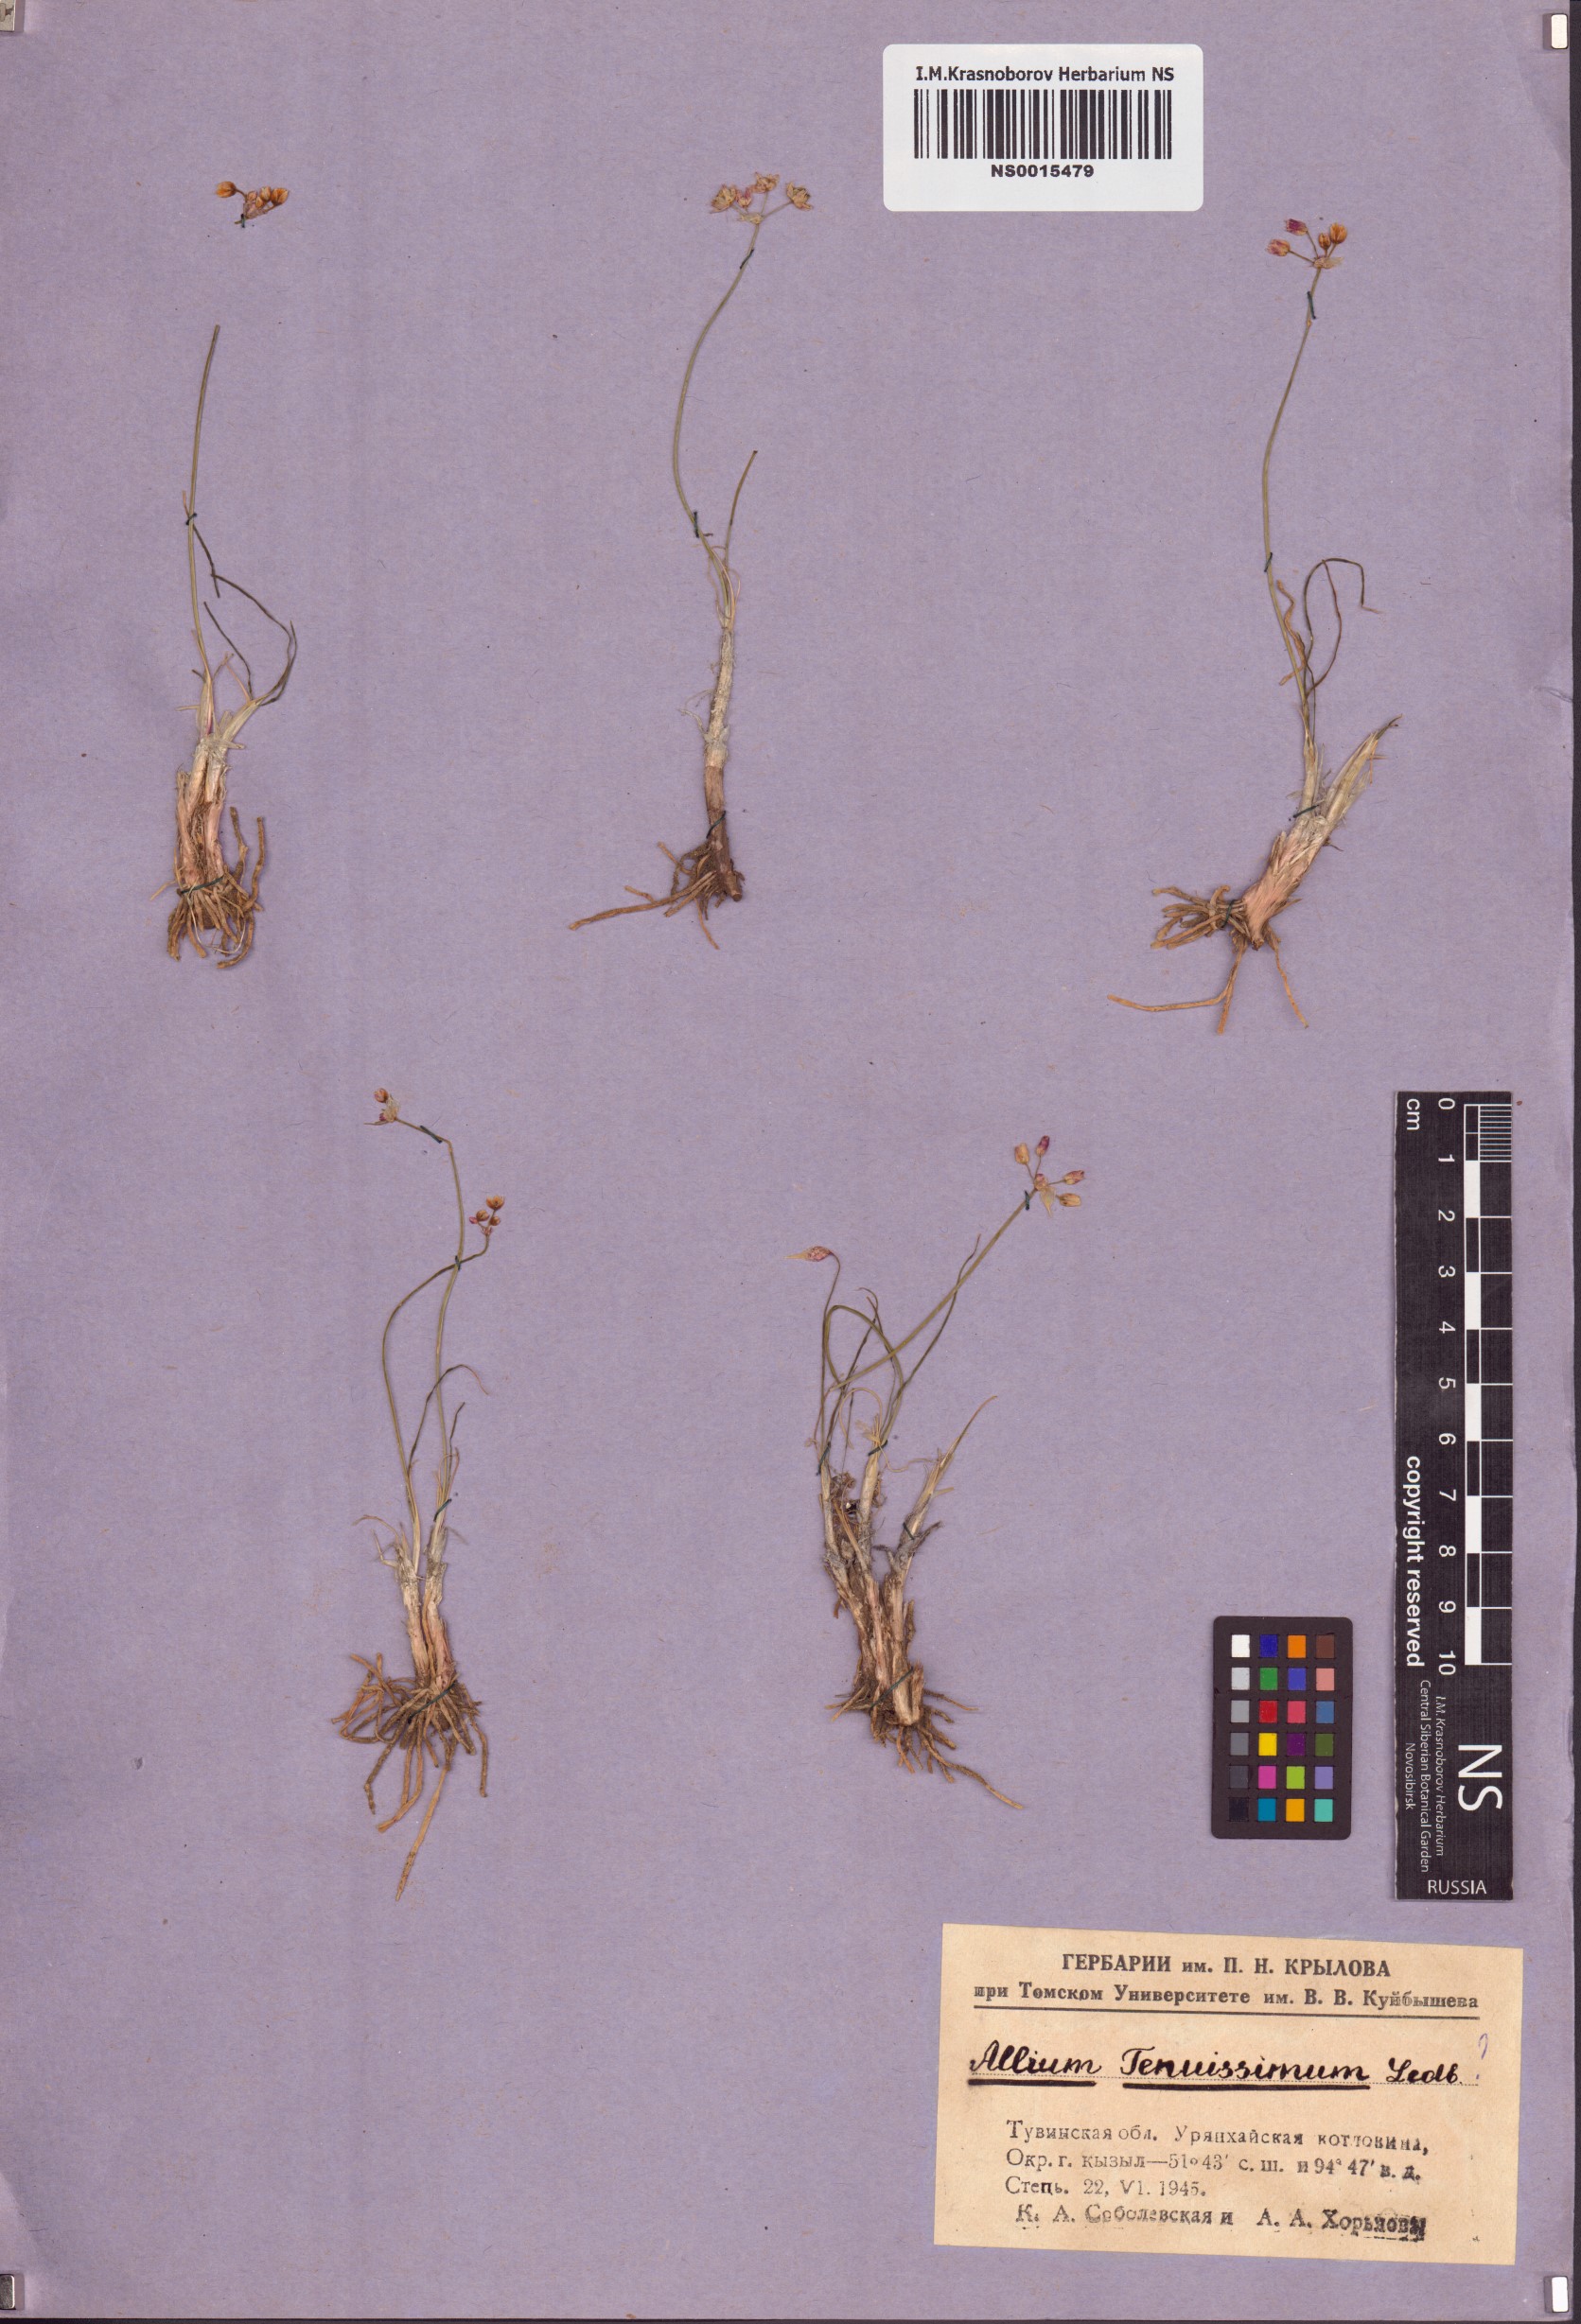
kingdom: Plantae
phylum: Tracheophyta
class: Liliopsida
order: Asparagales
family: Amaryllidaceae
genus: Allium
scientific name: Allium tenuissimum
